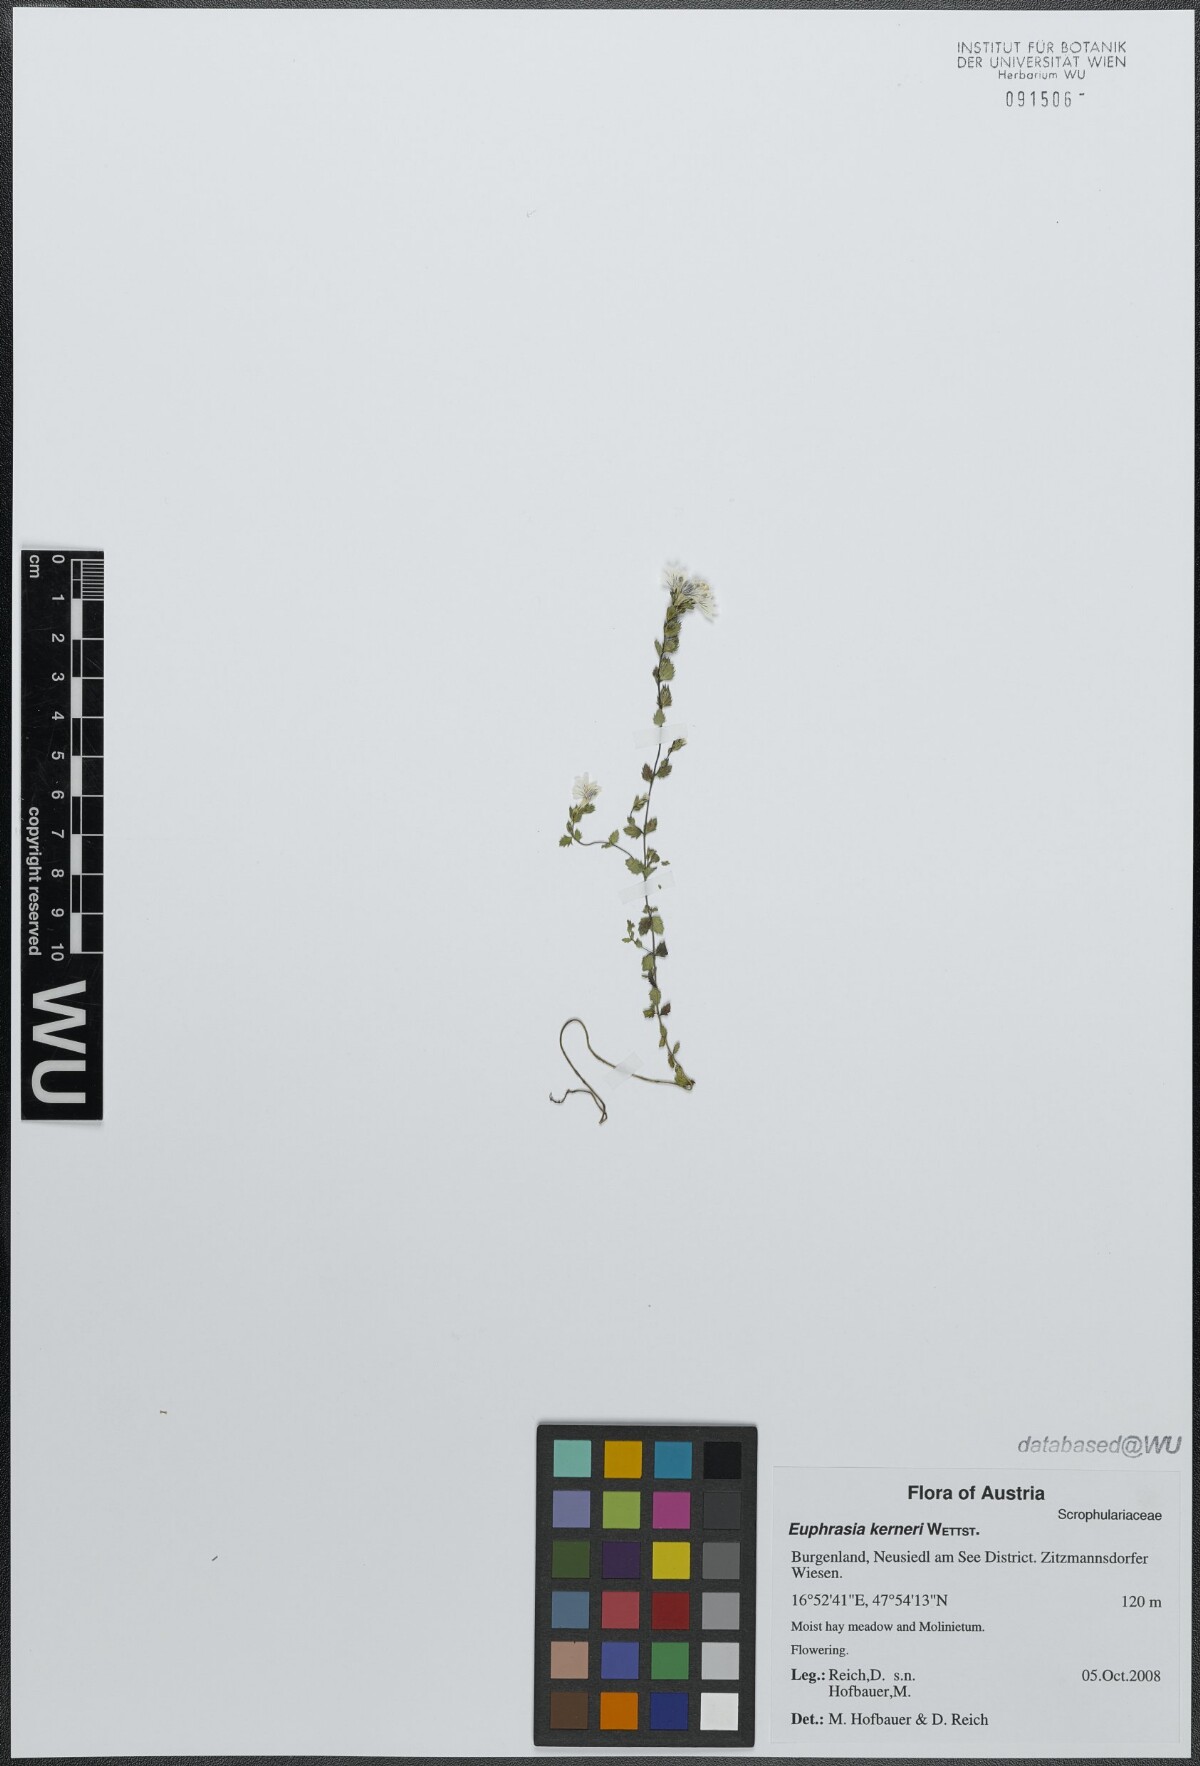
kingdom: Plantae
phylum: Tracheophyta
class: Magnoliopsida
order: Lamiales
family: Orobanchaceae
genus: Euphrasia
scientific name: Euphrasia kerneri
